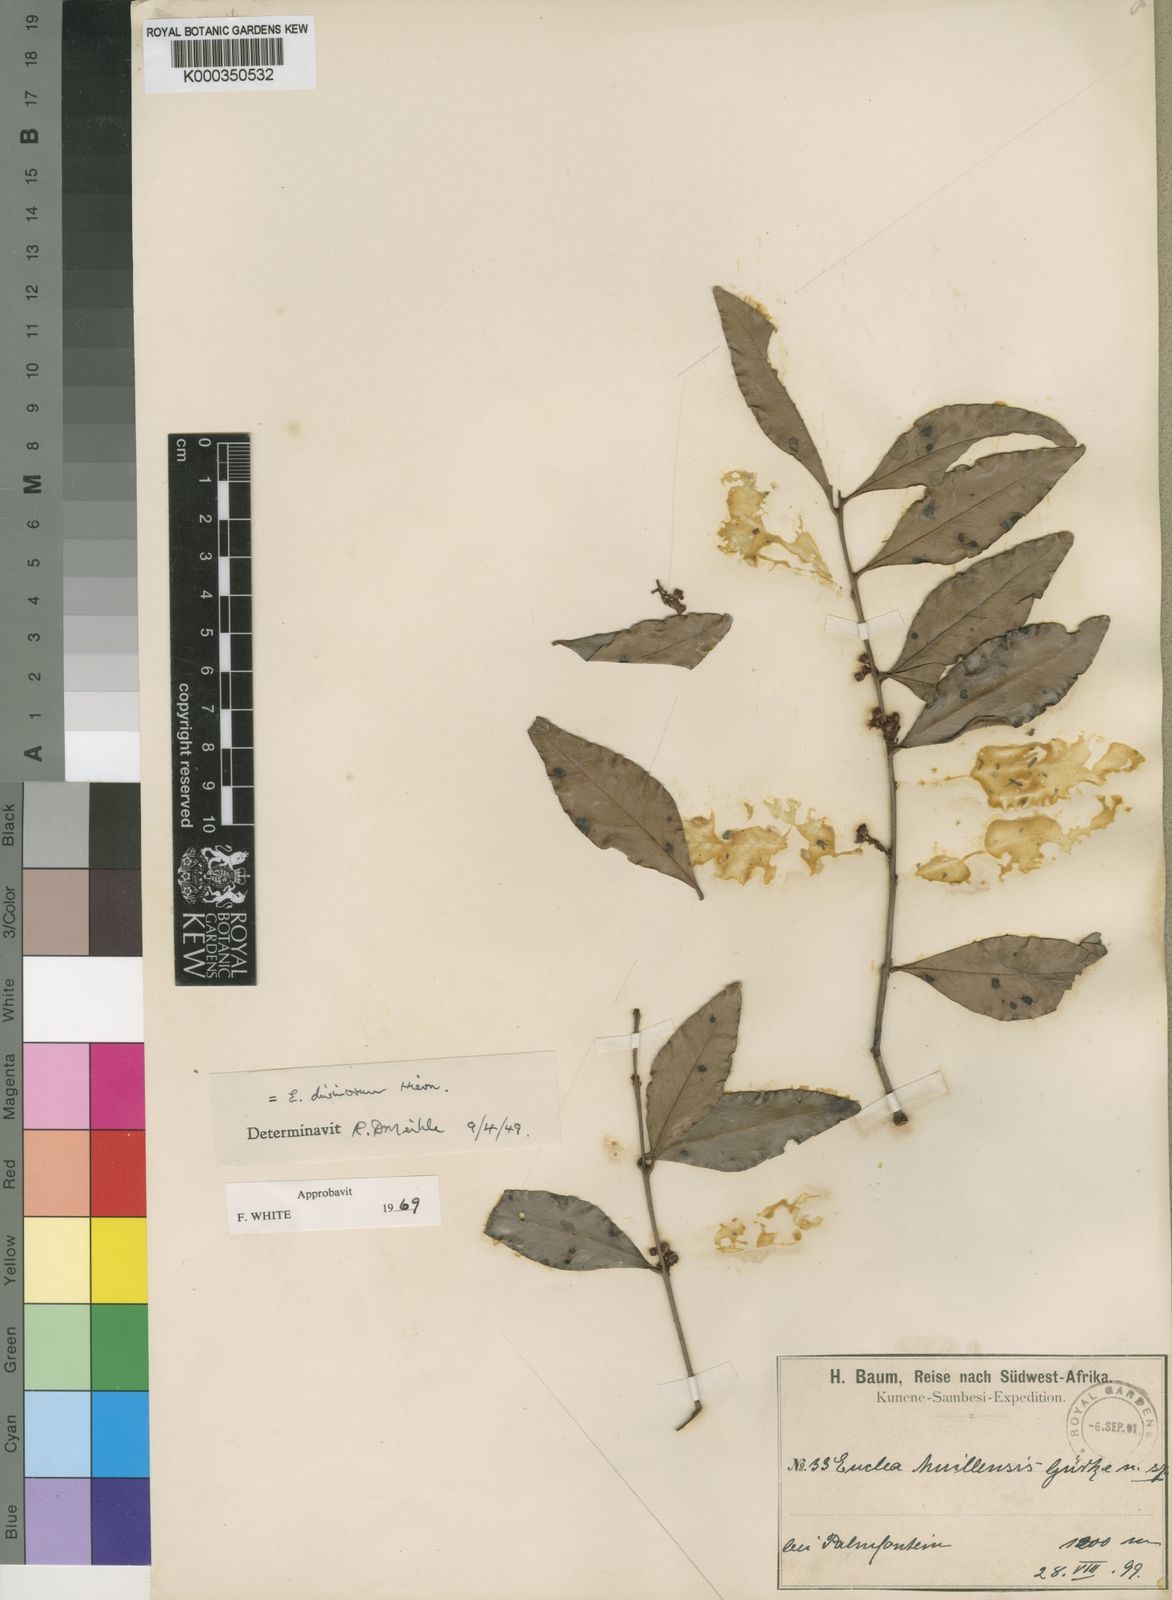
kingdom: Plantae
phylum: Tracheophyta
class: Magnoliopsida
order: Ericales
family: Ebenaceae
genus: Euclea
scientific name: Euclea divinorum
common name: Diamond-leaved euclea
